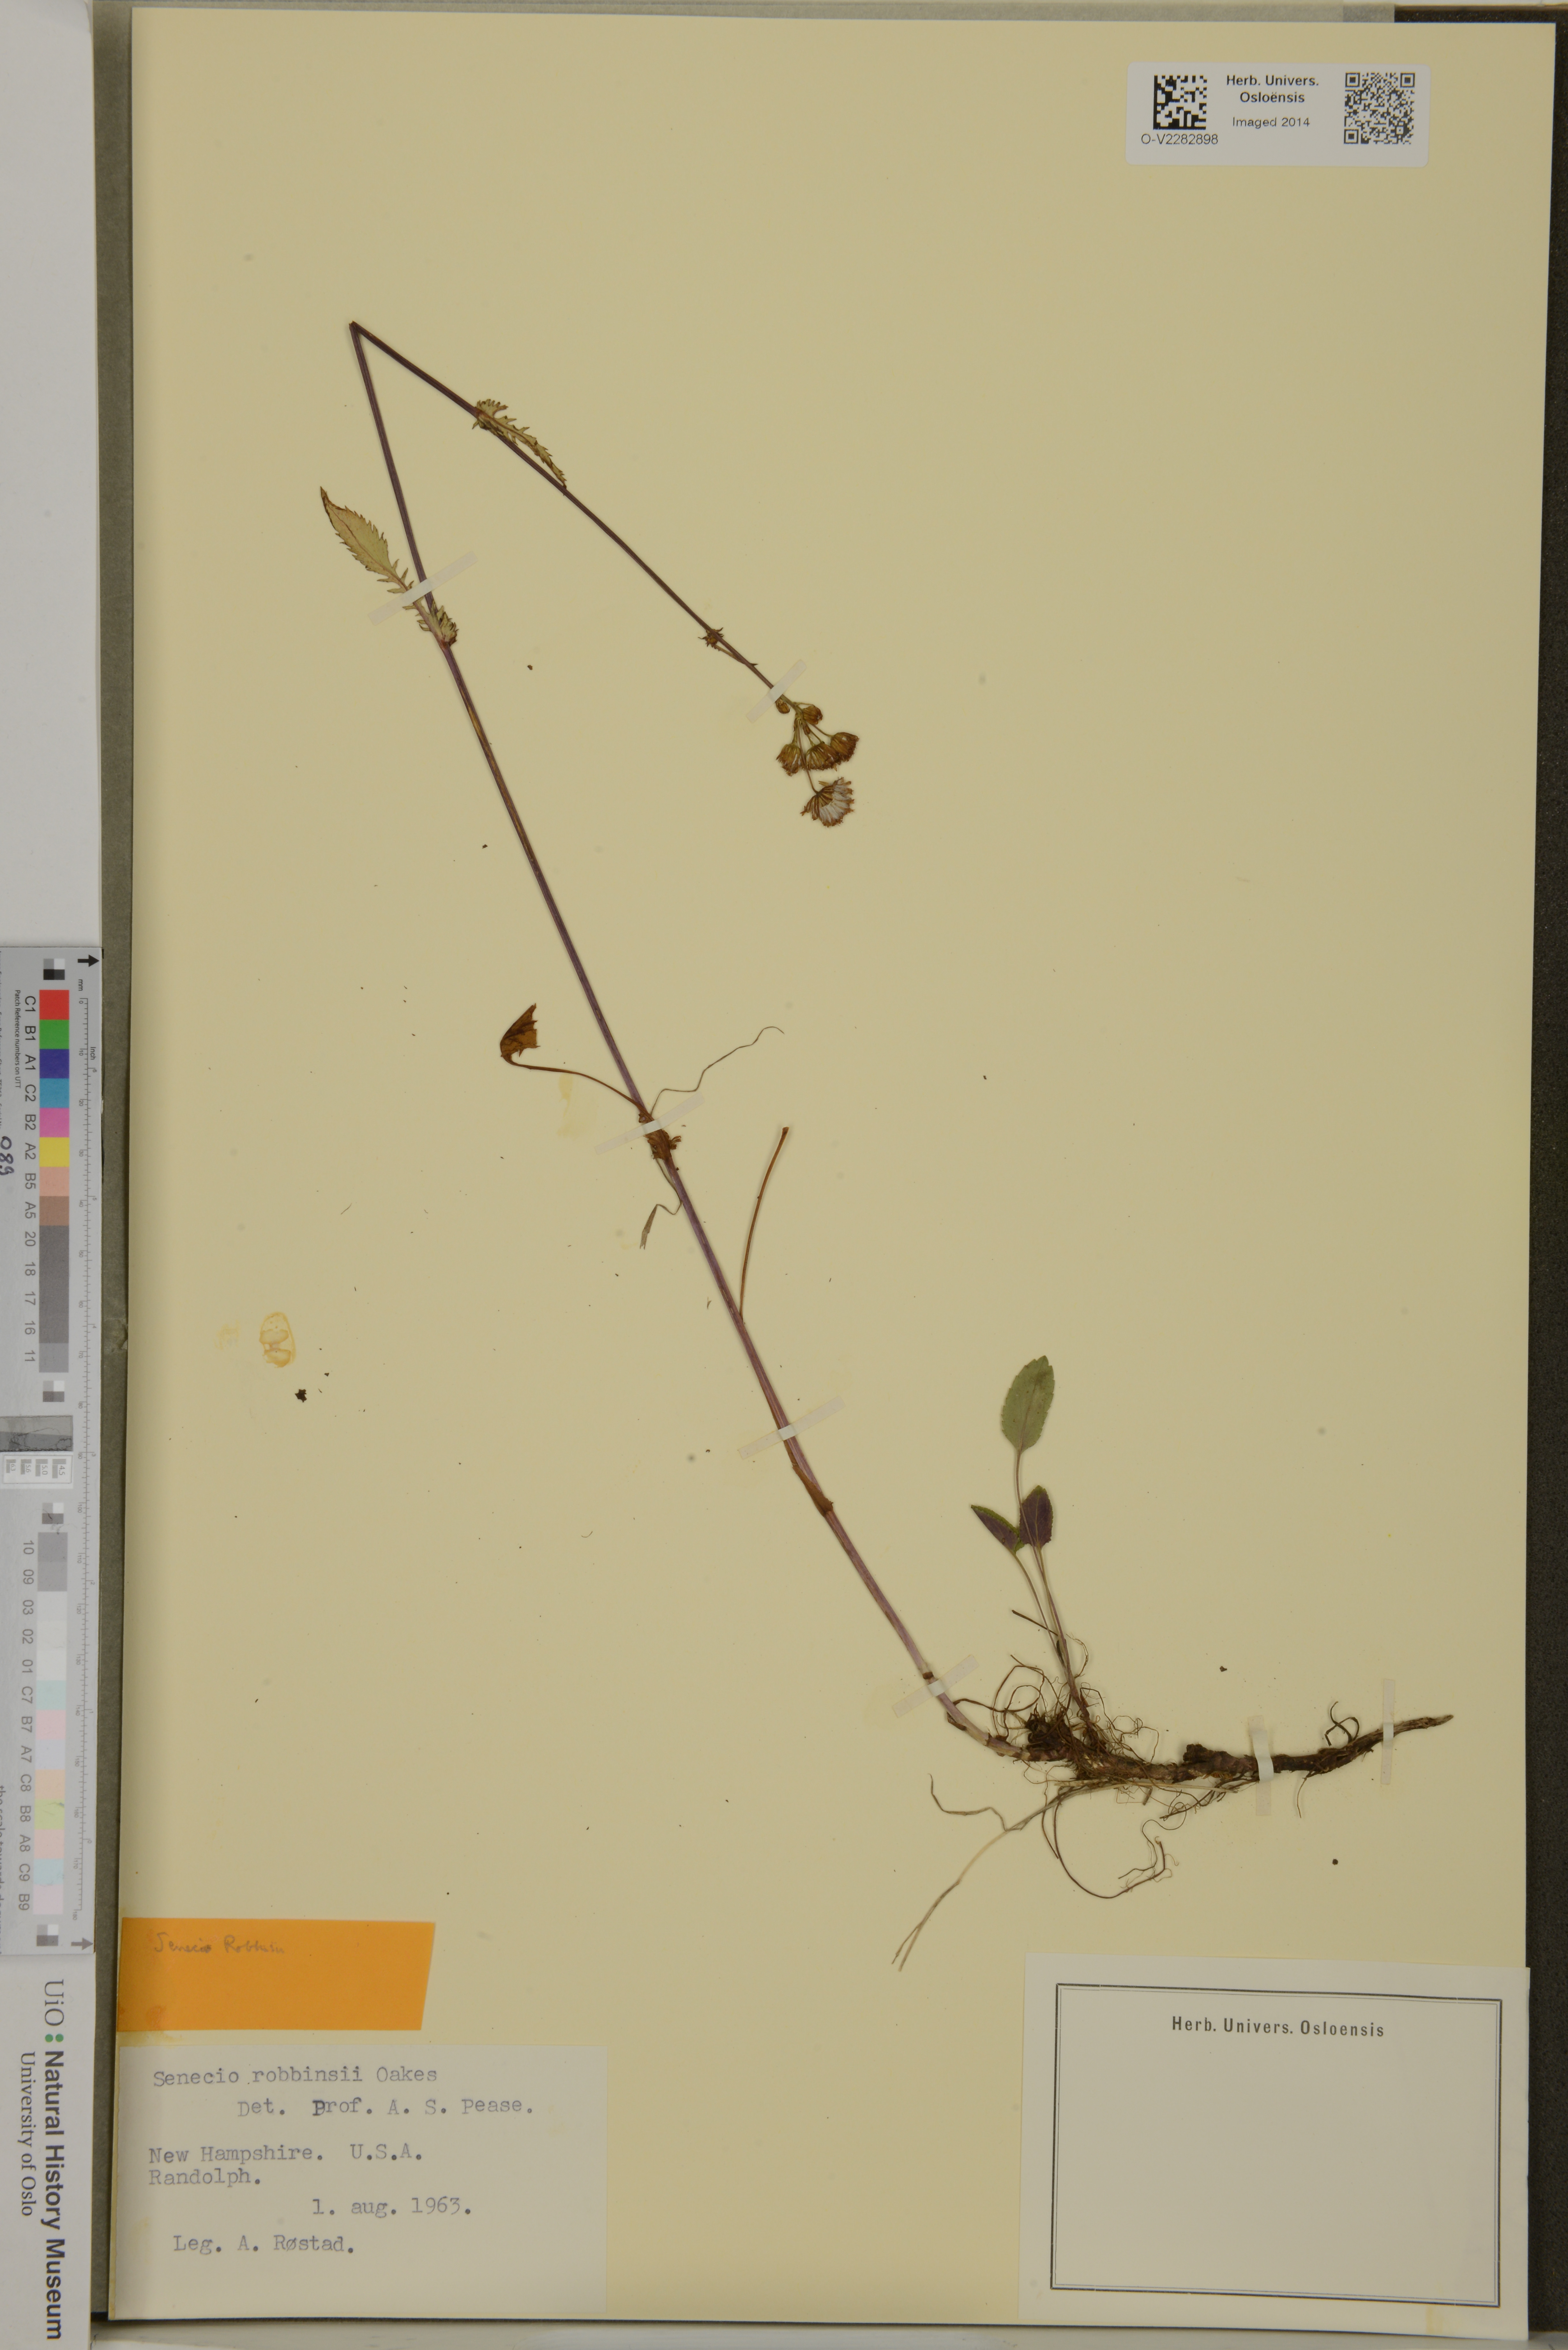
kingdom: Plantae
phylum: Tracheophyta
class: Magnoliopsida
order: Asterales
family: Asteraceae
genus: Packera
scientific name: Packera schweinitziana
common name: Schweinitz's ragwort
